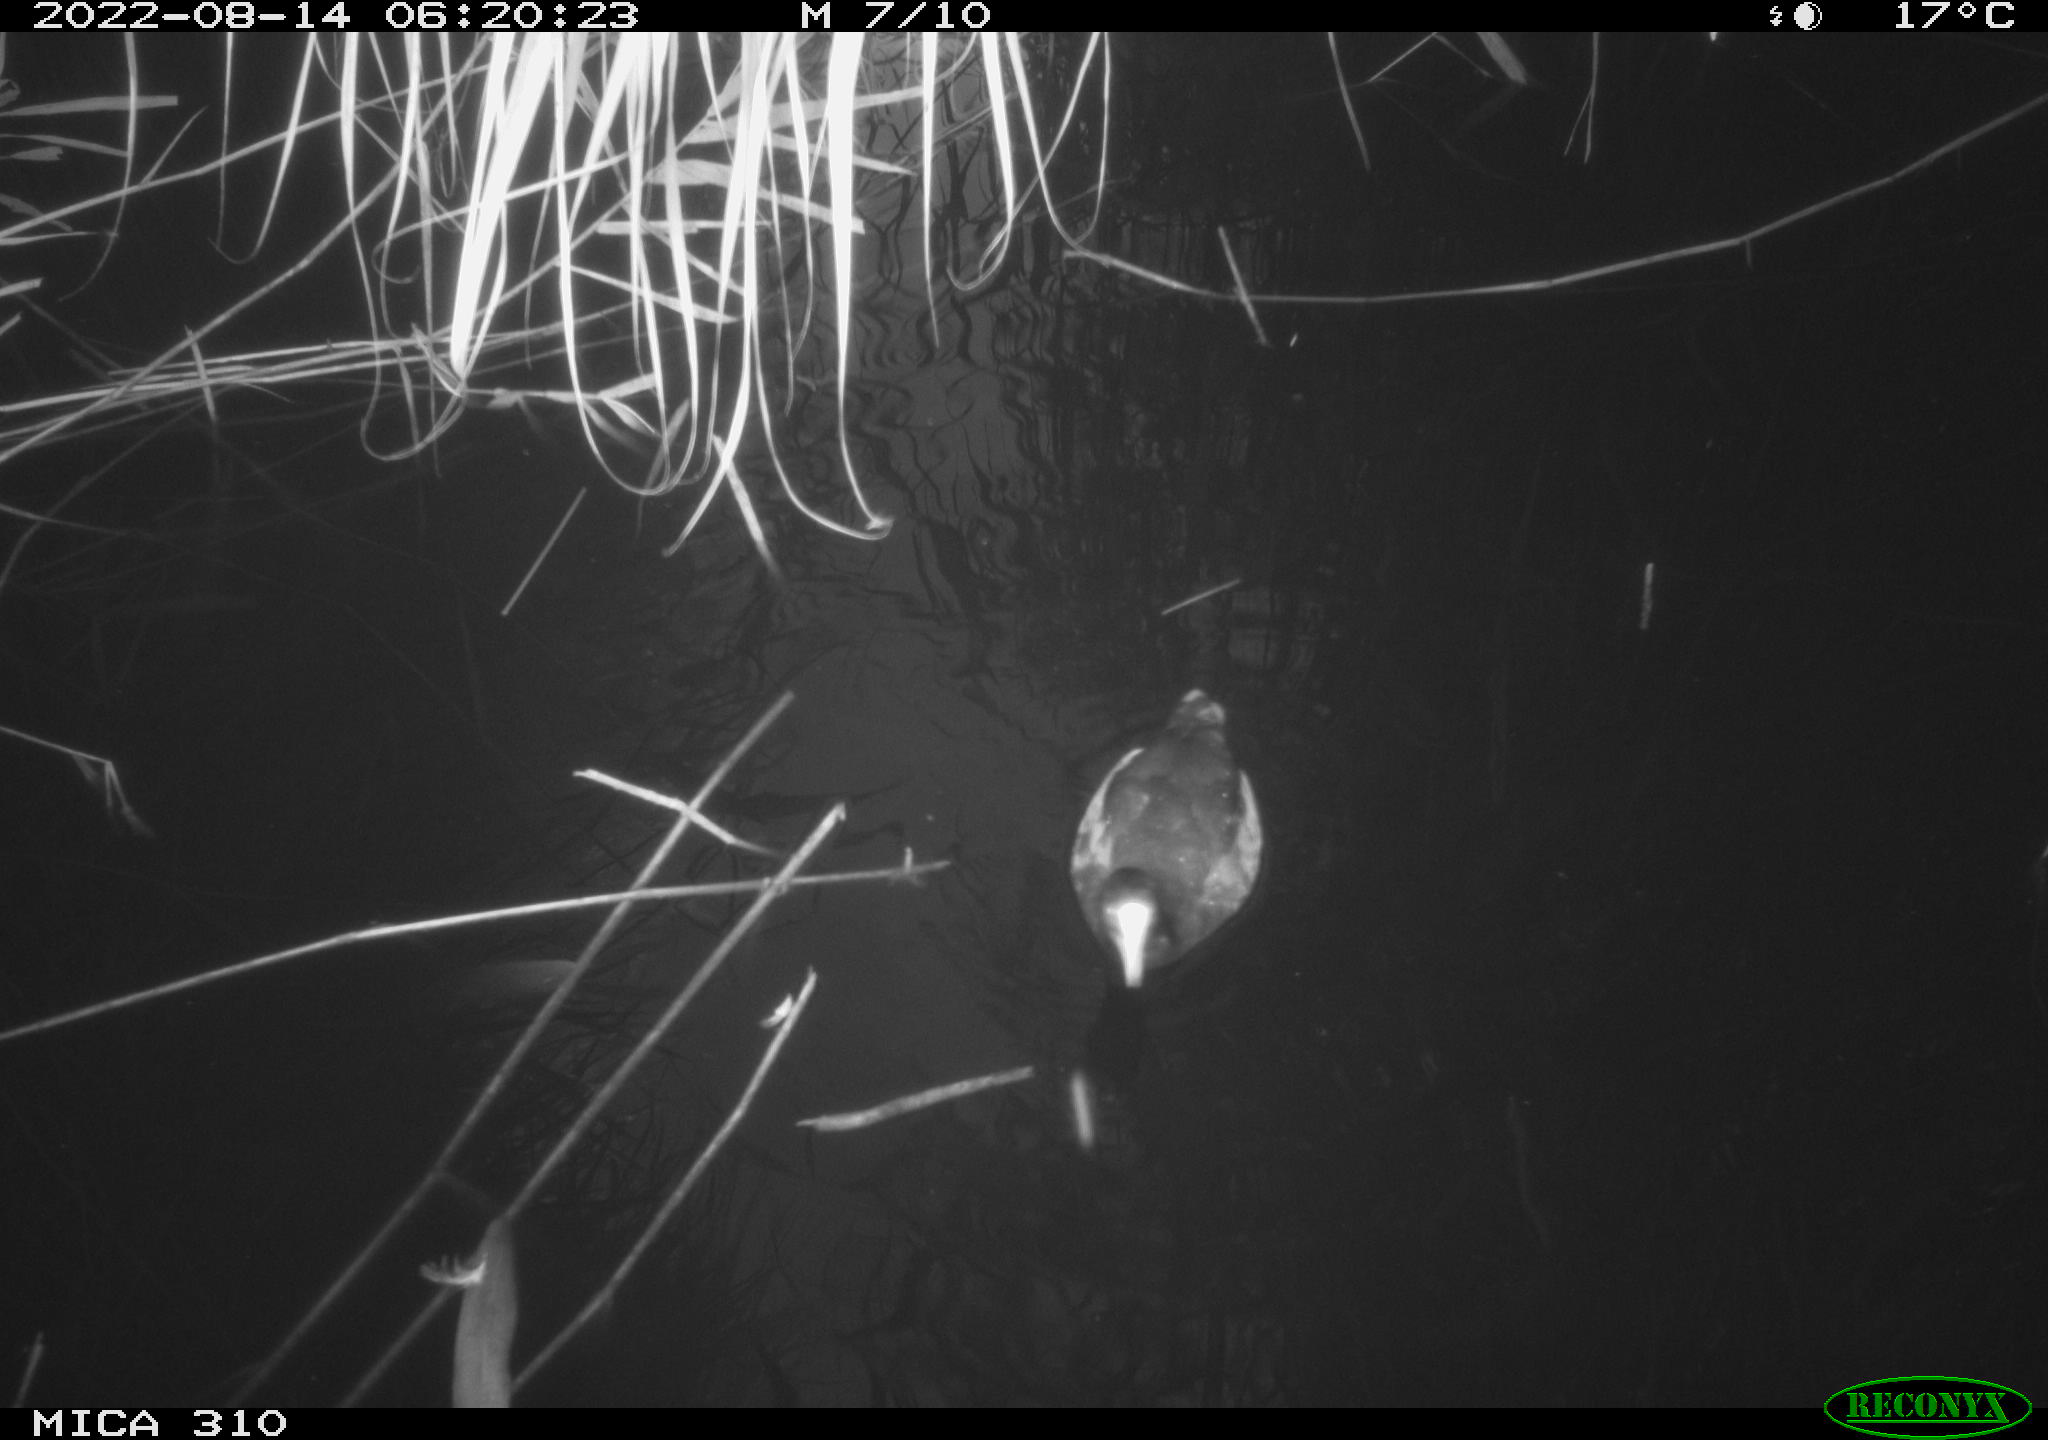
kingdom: Animalia
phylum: Chordata
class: Aves
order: Gruiformes
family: Rallidae
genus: Gallinula
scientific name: Gallinula chloropus
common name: Common moorhen
